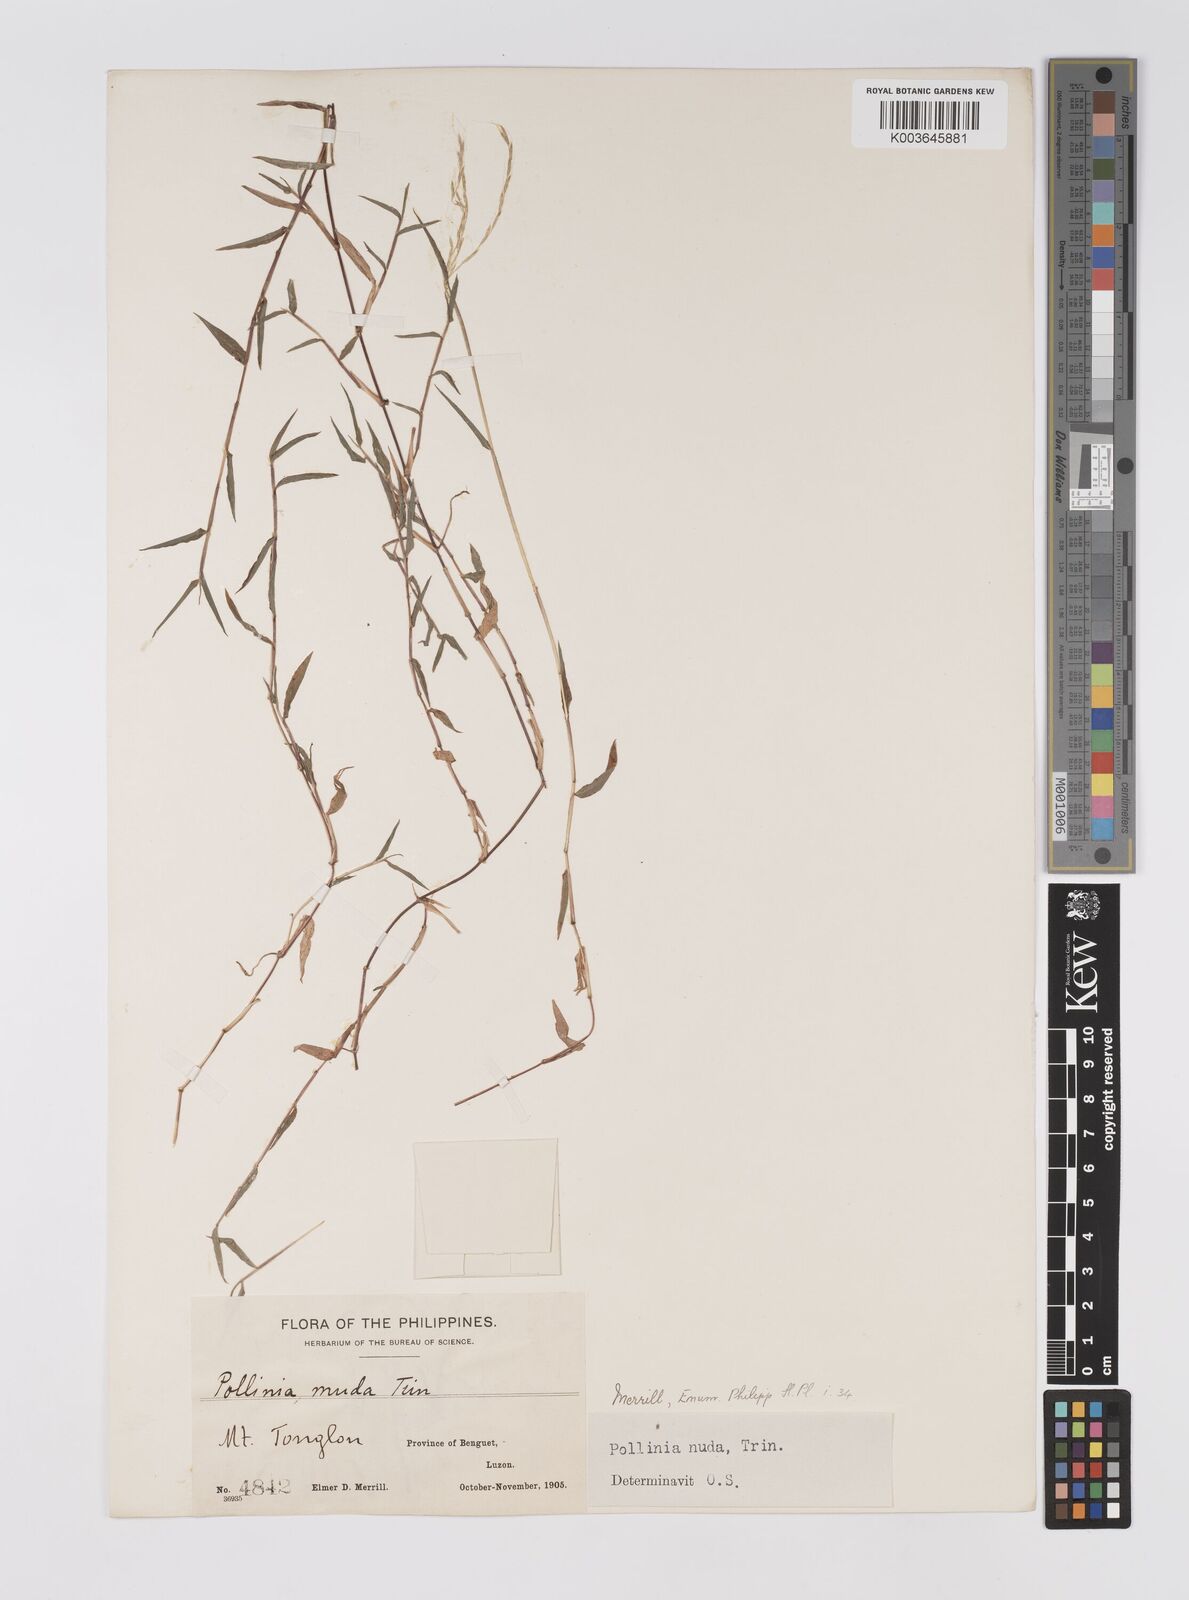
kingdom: Plantae
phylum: Tracheophyta
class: Liliopsida
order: Poales
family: Poaceae
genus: Microstegium
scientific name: Microstegium nudum
